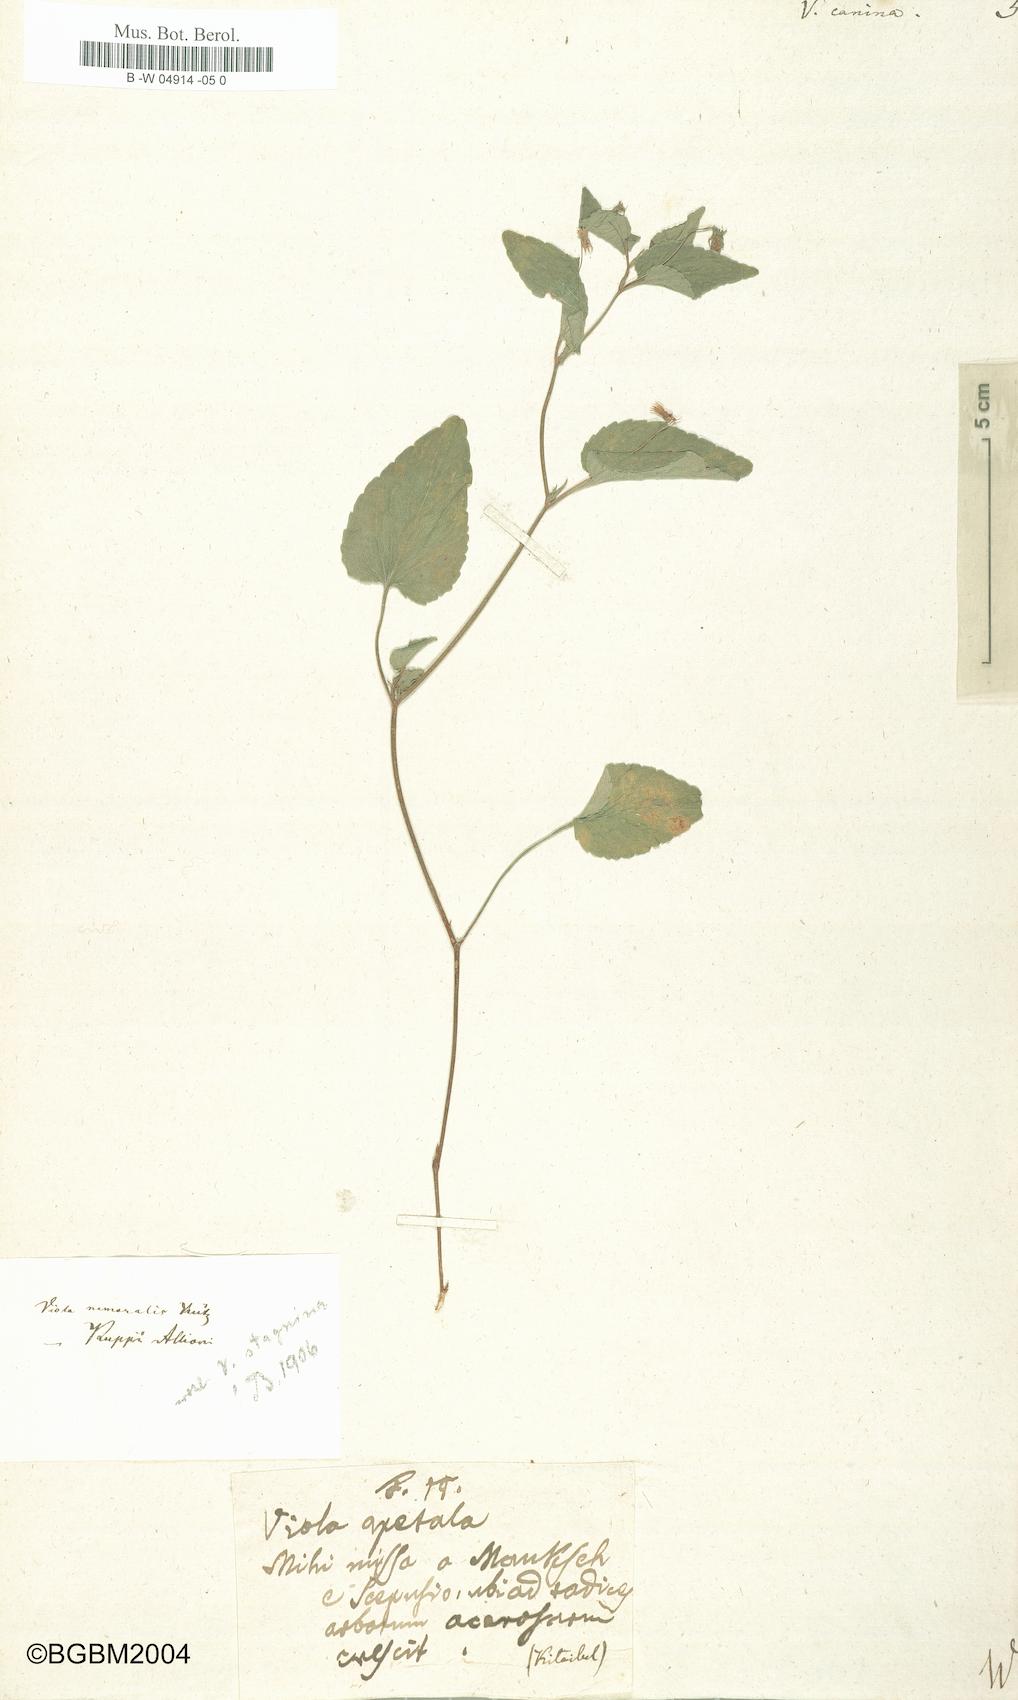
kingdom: Plantae
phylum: Tracheophyta
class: Magnoliopsida
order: Malpighiales
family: Violaceae
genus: Viola
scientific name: Viola canina
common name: Heath dog-violet
